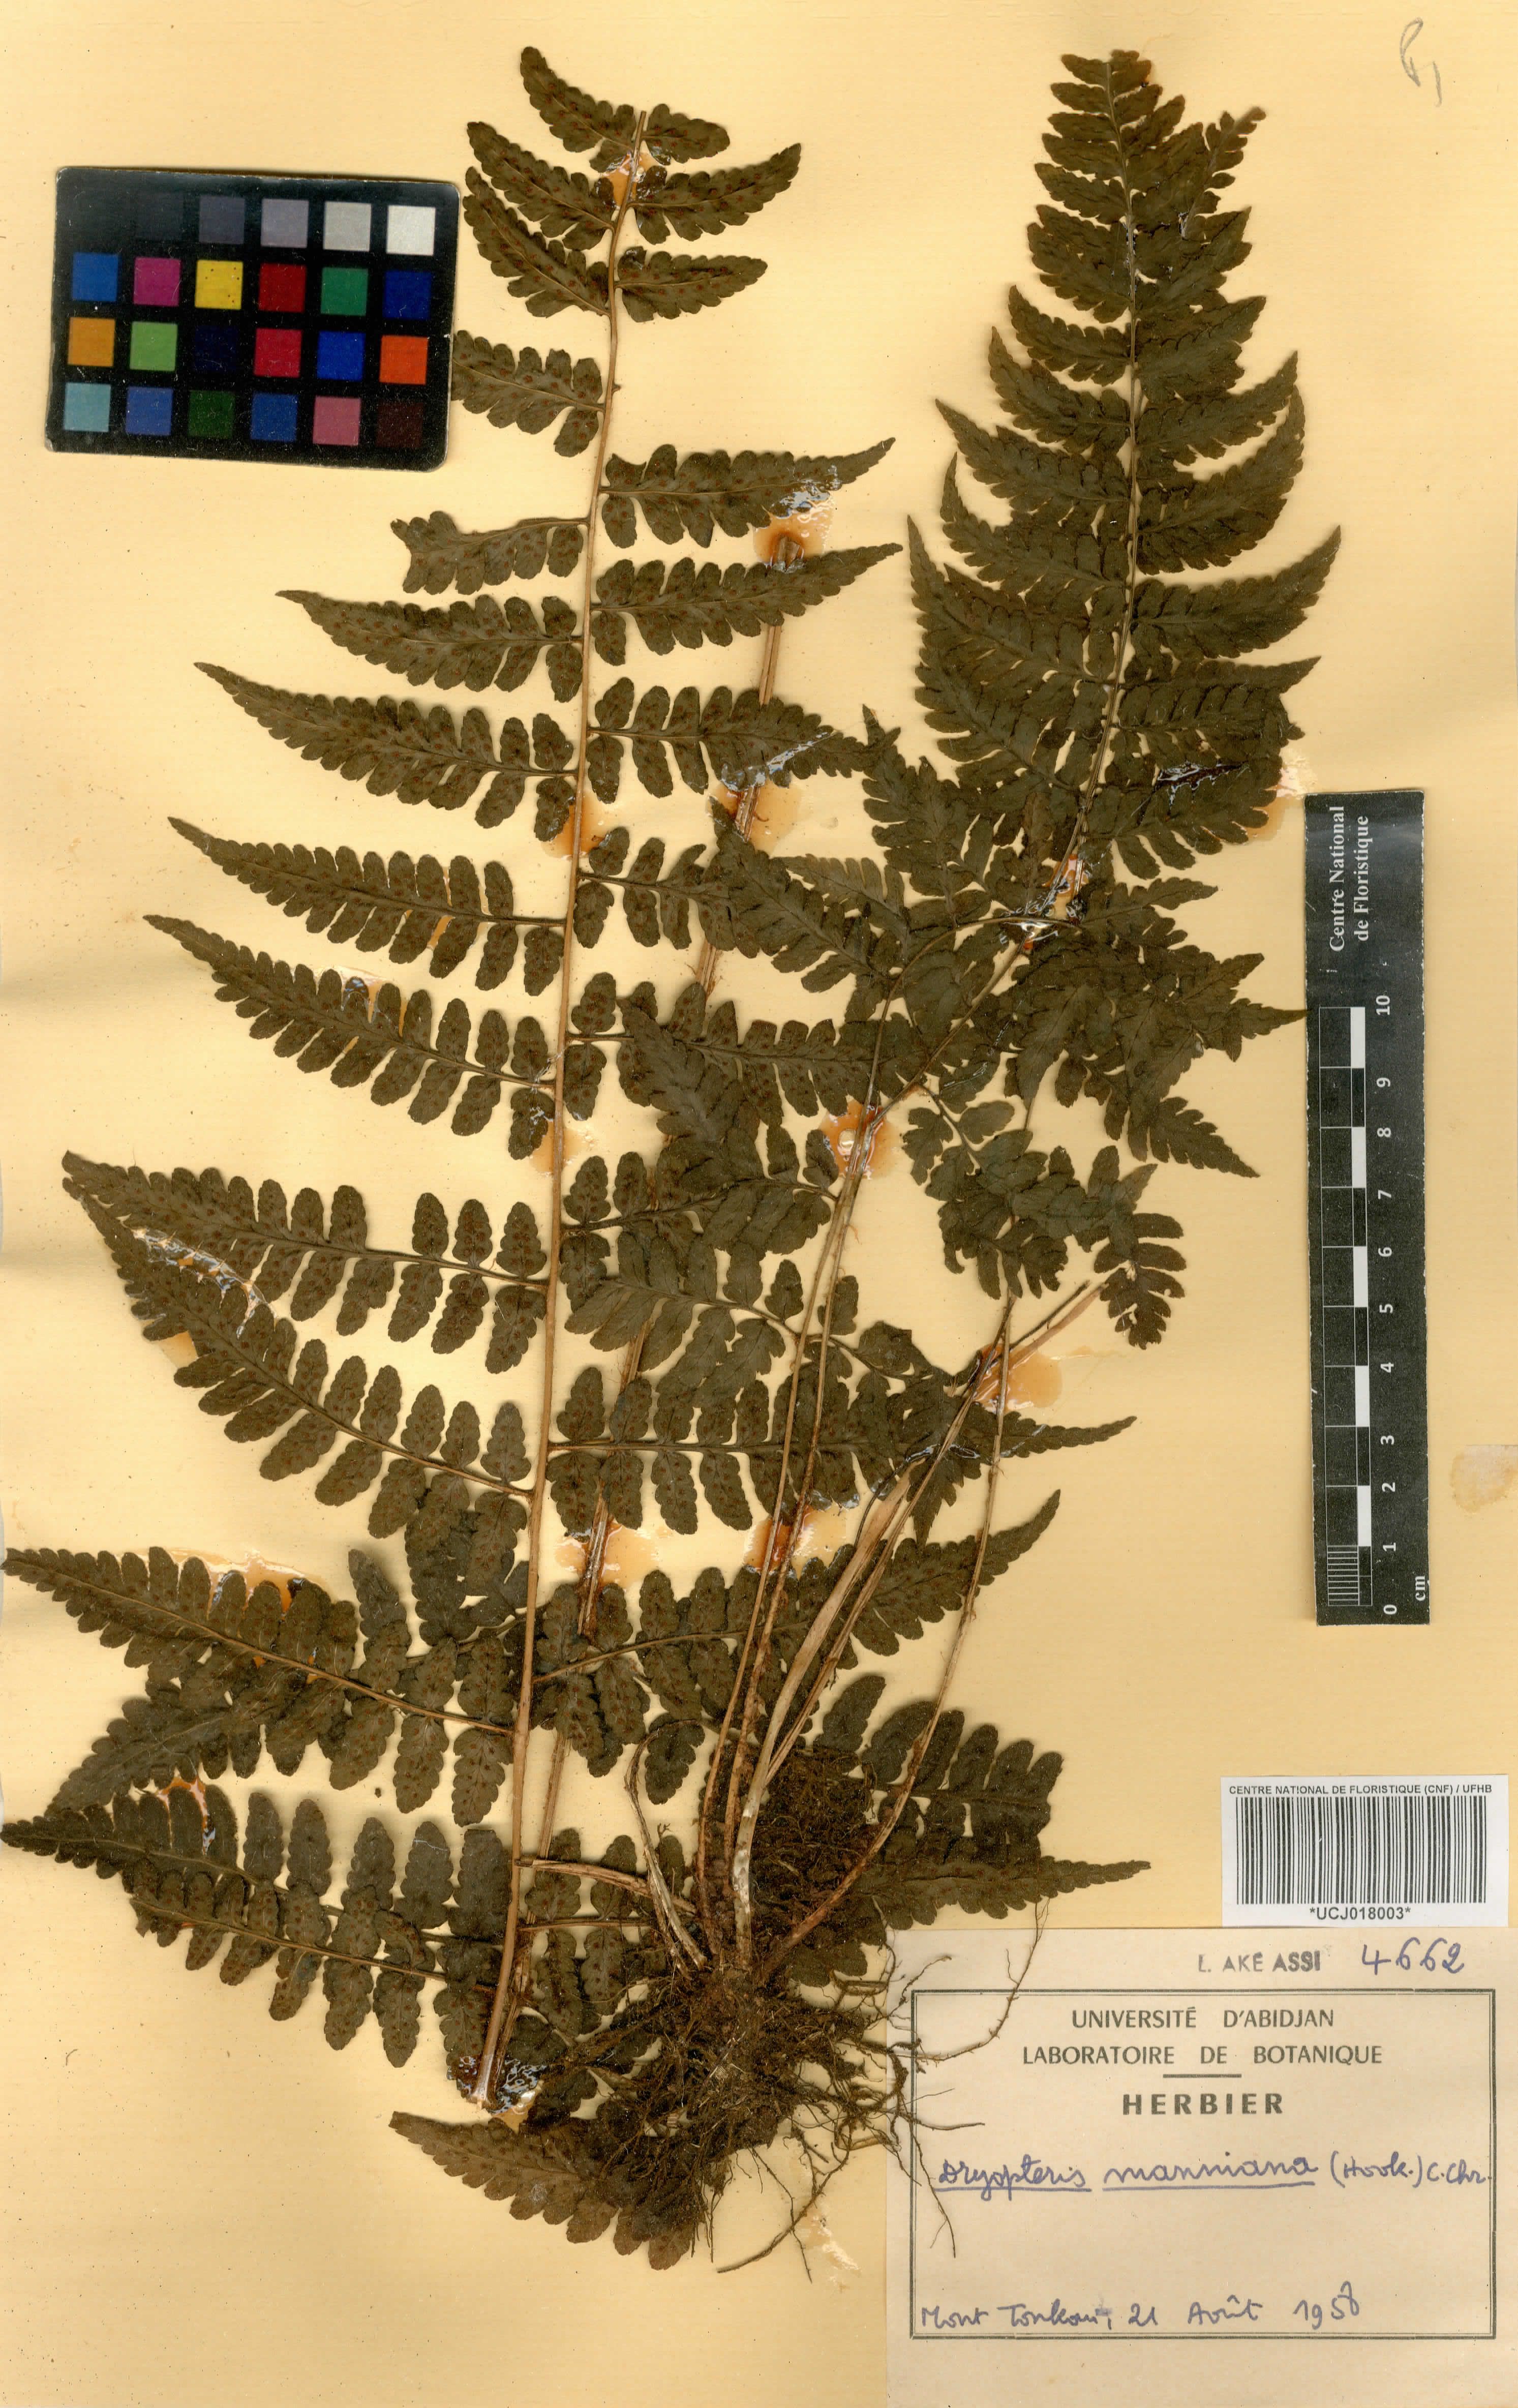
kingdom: Plantae
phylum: Tracheophyta
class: Polypodiopsida
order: Polypodiales
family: Dryopteridaceae
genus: Dryopteris
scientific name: Dryopteris manniana
